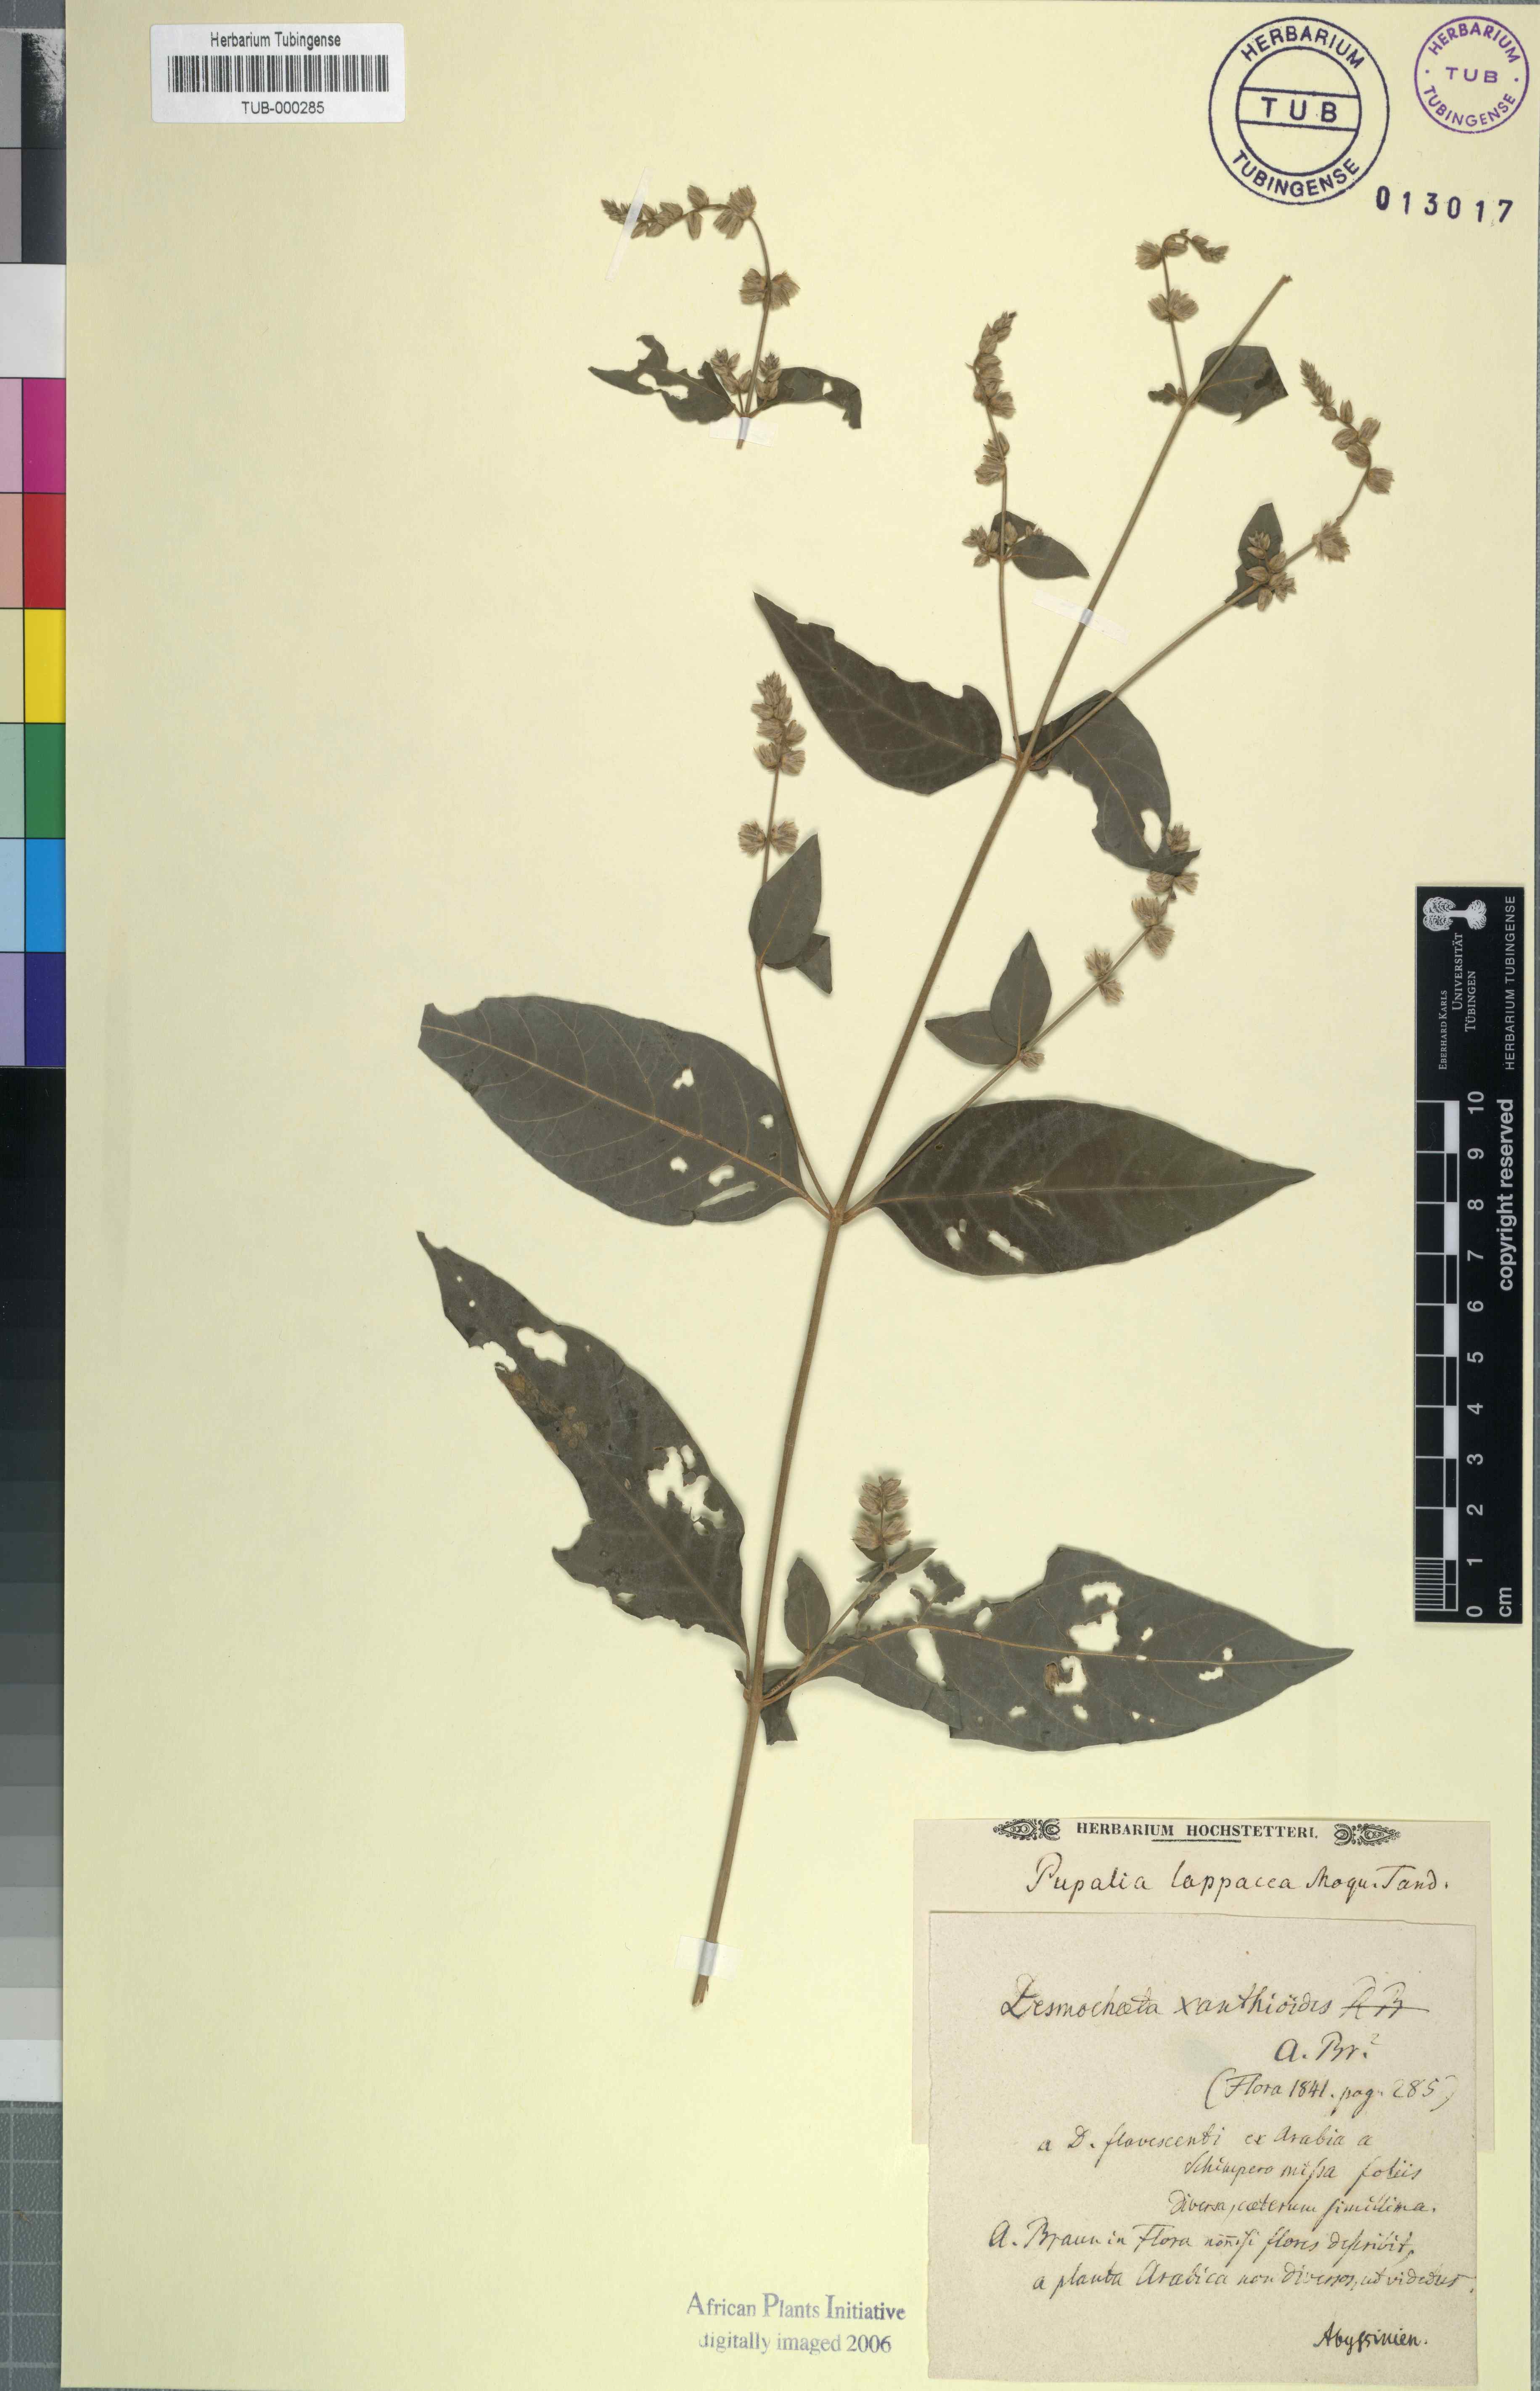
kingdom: Plantae
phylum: Tracheophyta
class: Magnoliopsida
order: Caryophyllales
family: Amaranthaceae
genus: Pupalia
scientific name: Pupalia lappacea
